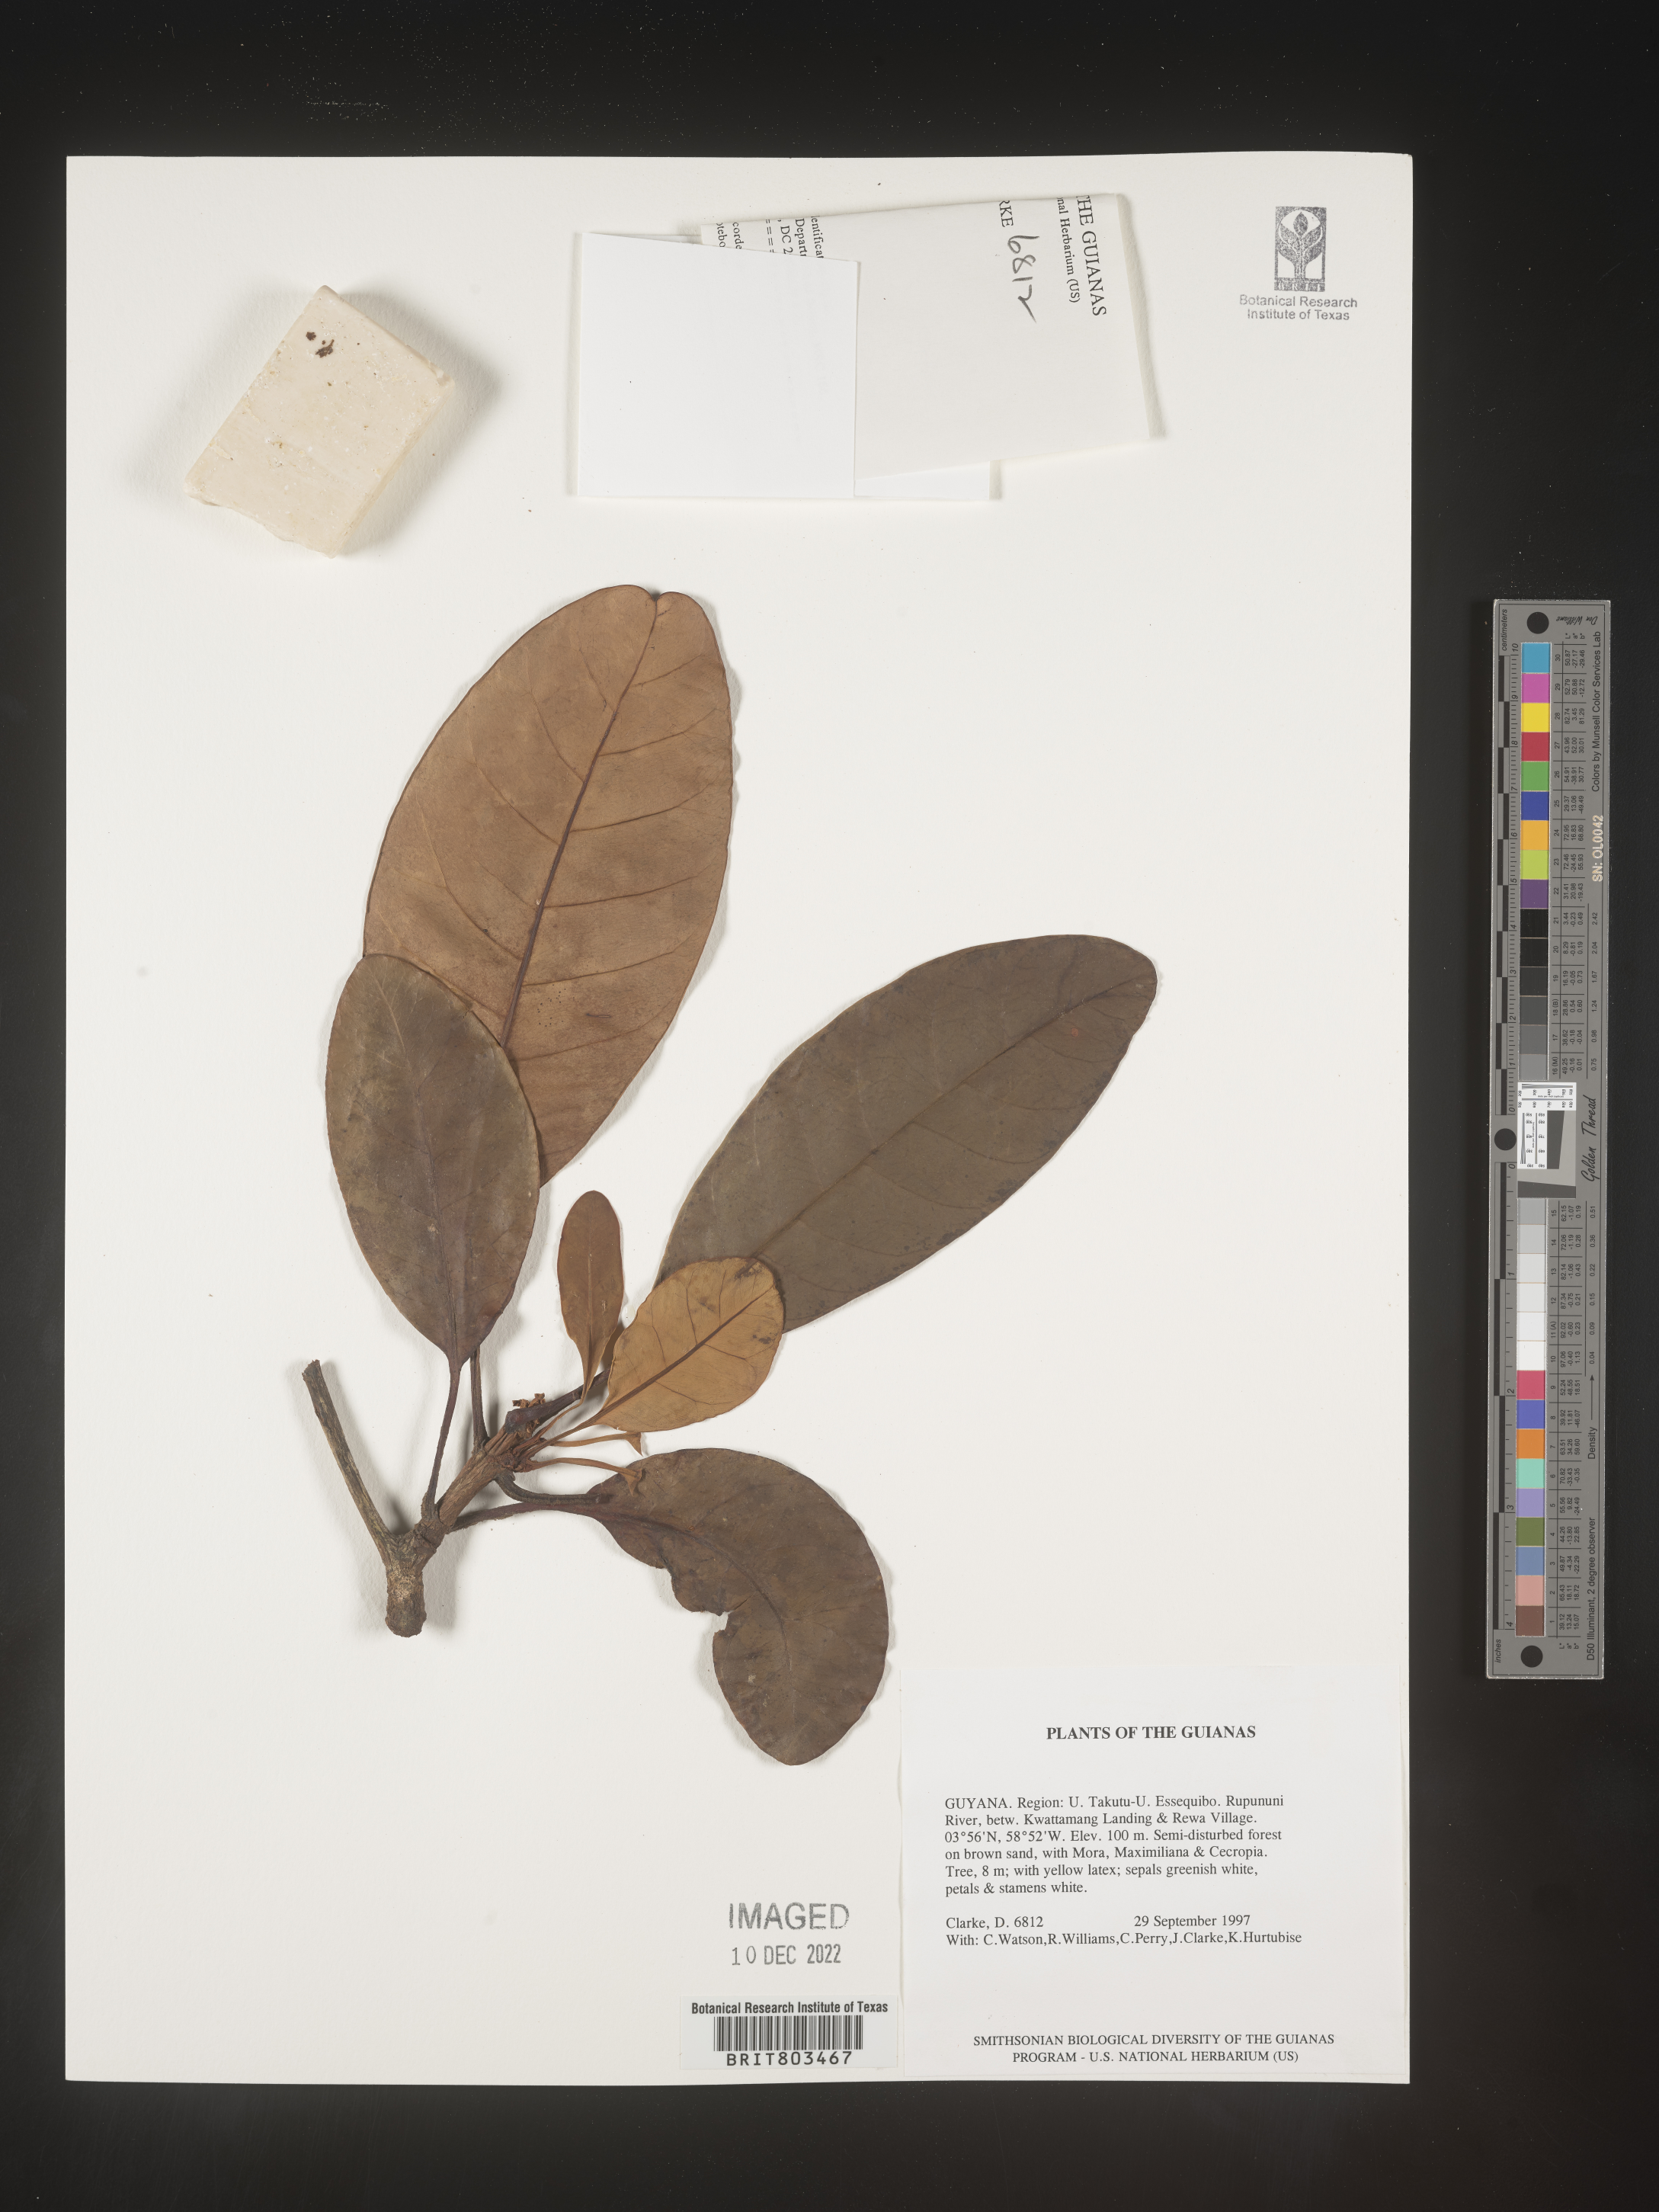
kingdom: Plantae
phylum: Tracheophyta
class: Magnoliopsida
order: Malpighiales
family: Clusiaceae
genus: Tovomita
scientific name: Tovomita
